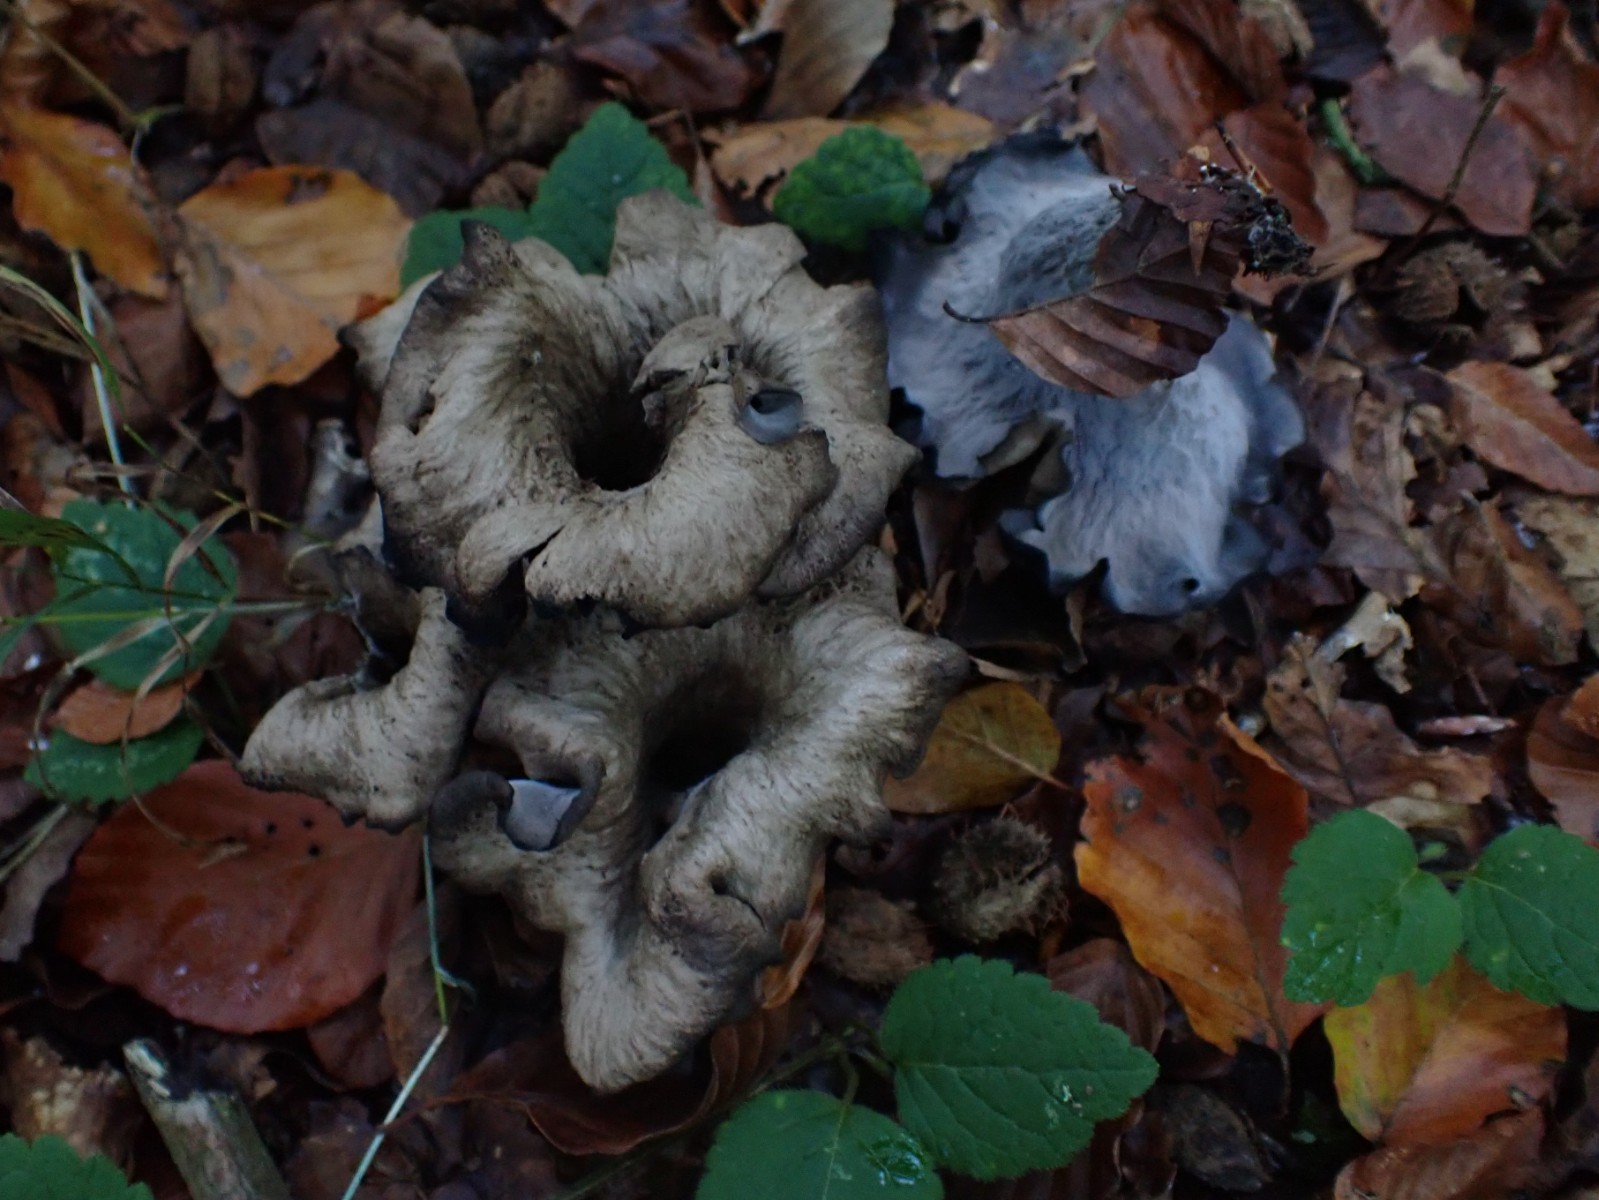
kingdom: Fungi
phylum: Basidiomycota
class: Agaricomycetes
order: Cantharellales
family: Hydnaceae
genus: Craterellus
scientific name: Craterellus cornucopioides
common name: trompetsvamp
